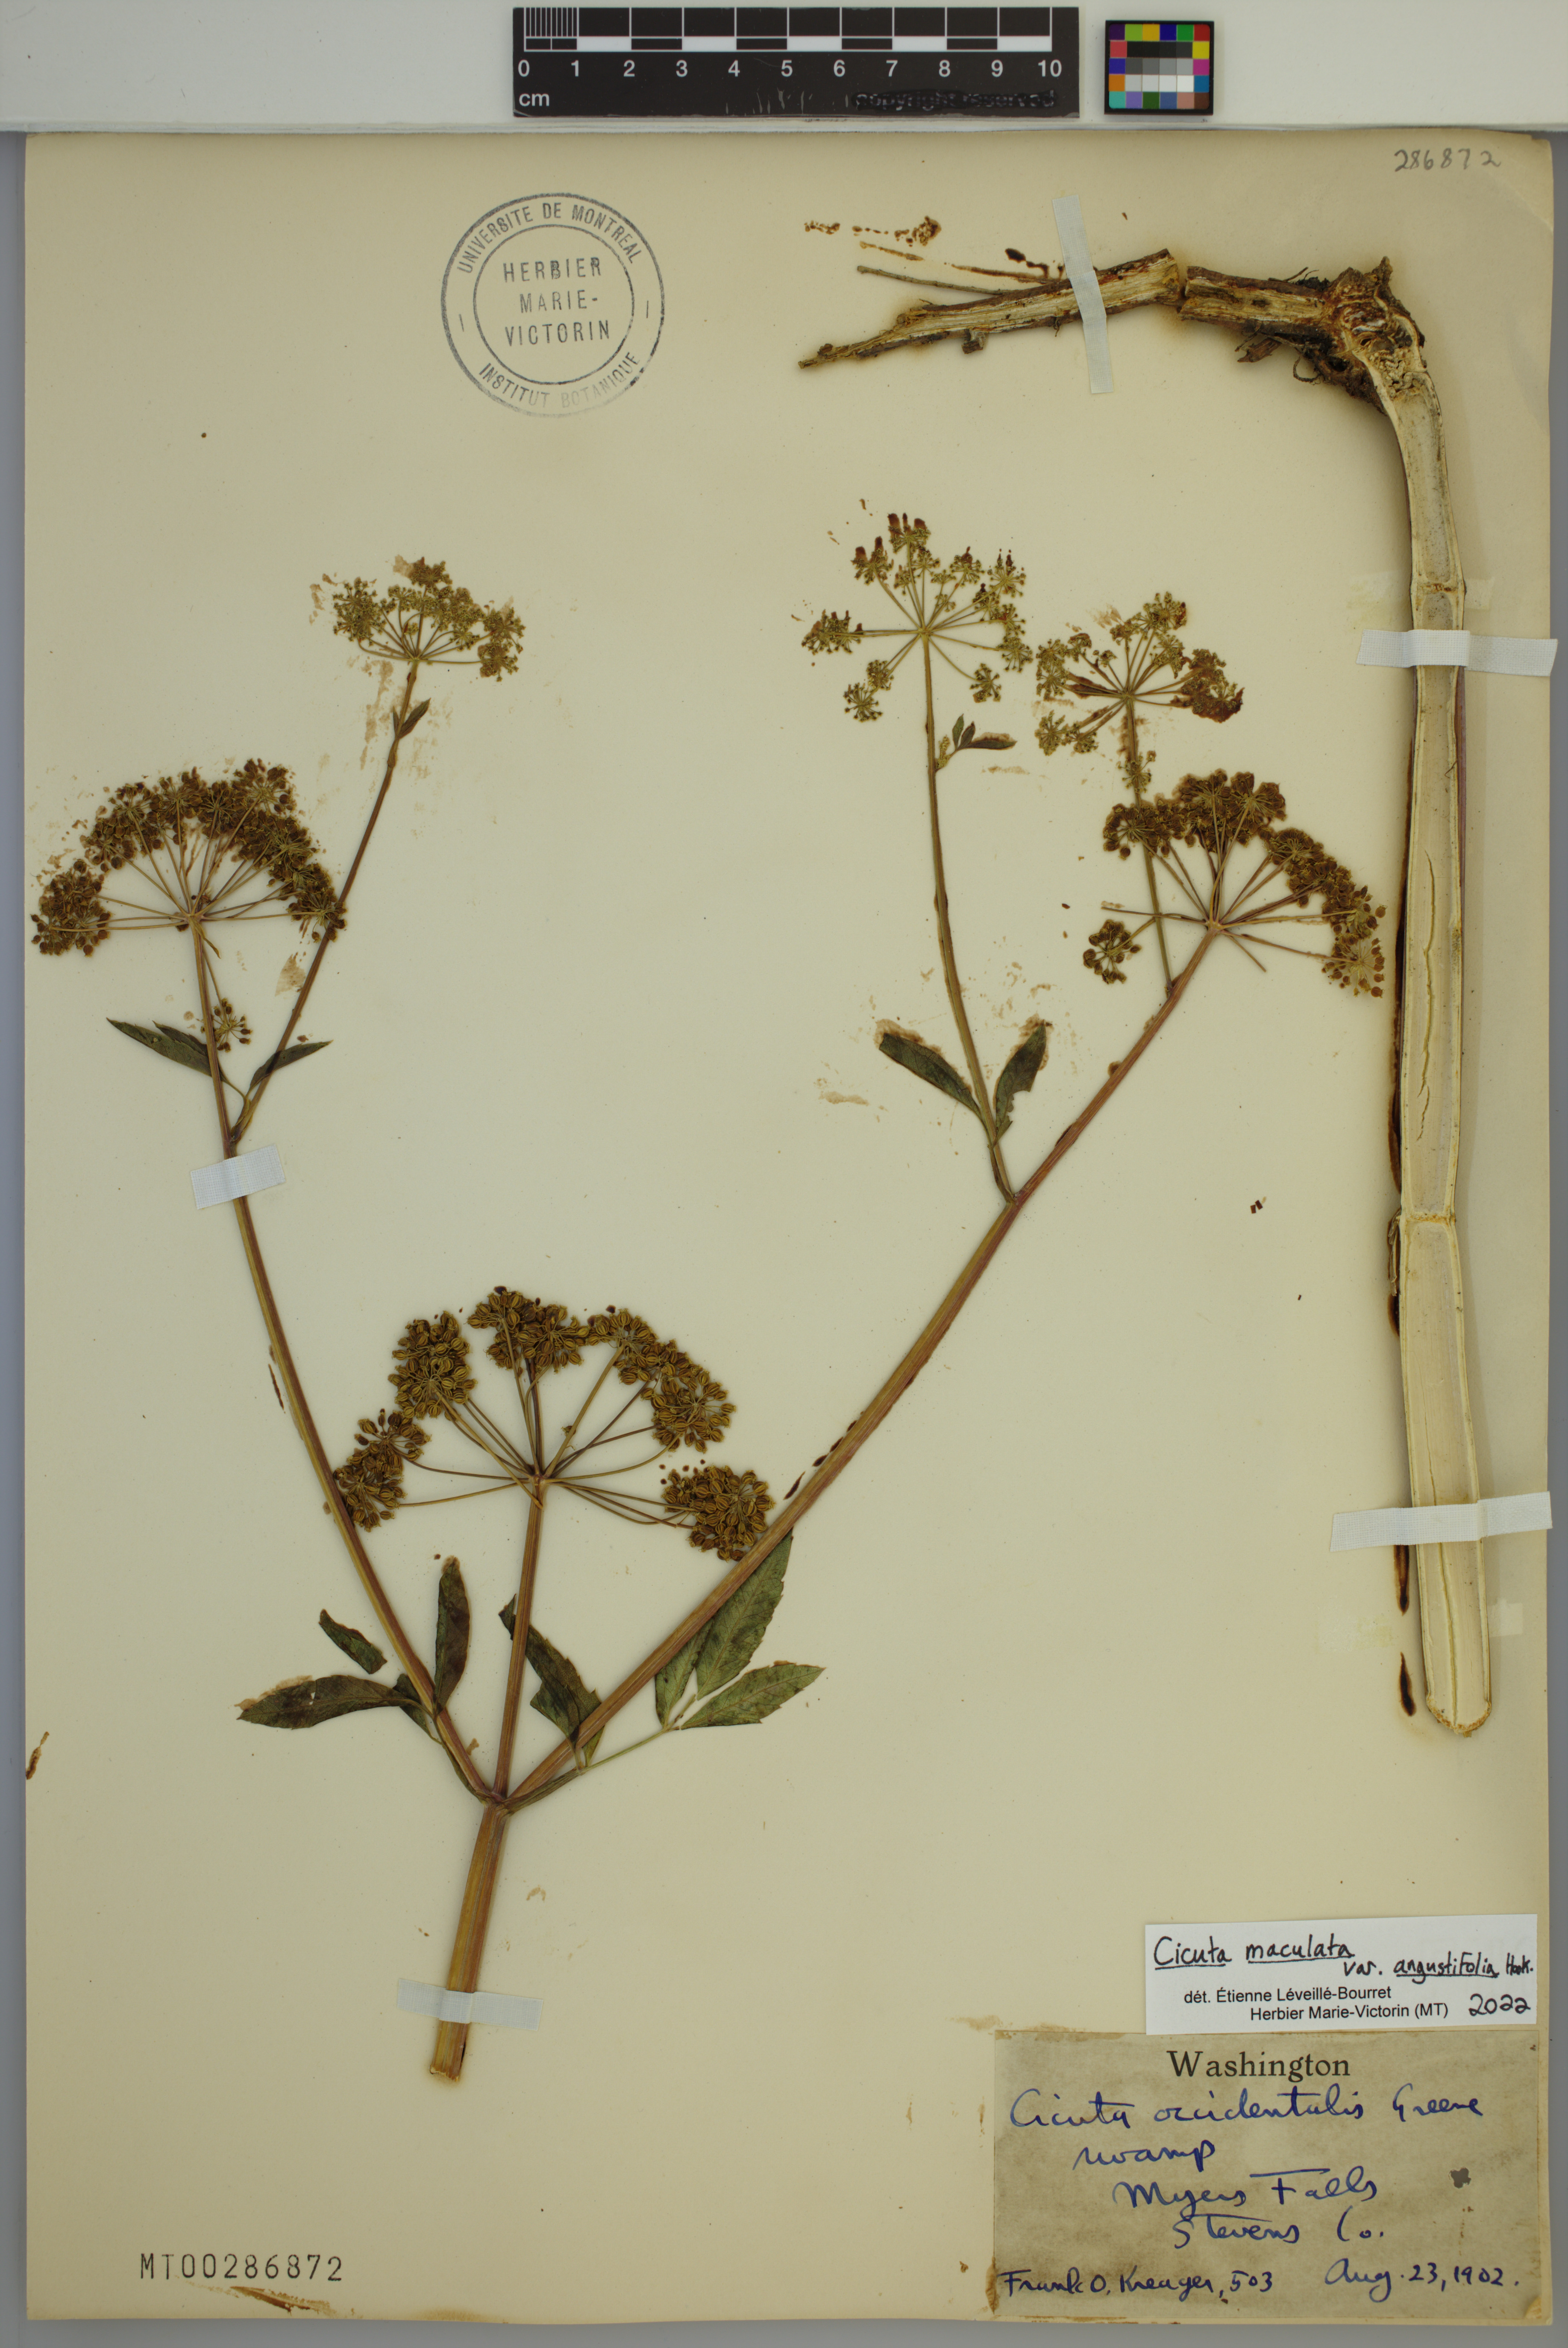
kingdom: Plantae
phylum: Tracheophyta
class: Magnoliopsida
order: Apiales
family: Apiaceae
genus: Cicuta
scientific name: Cicuta maculata
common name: Spotted cowbane
